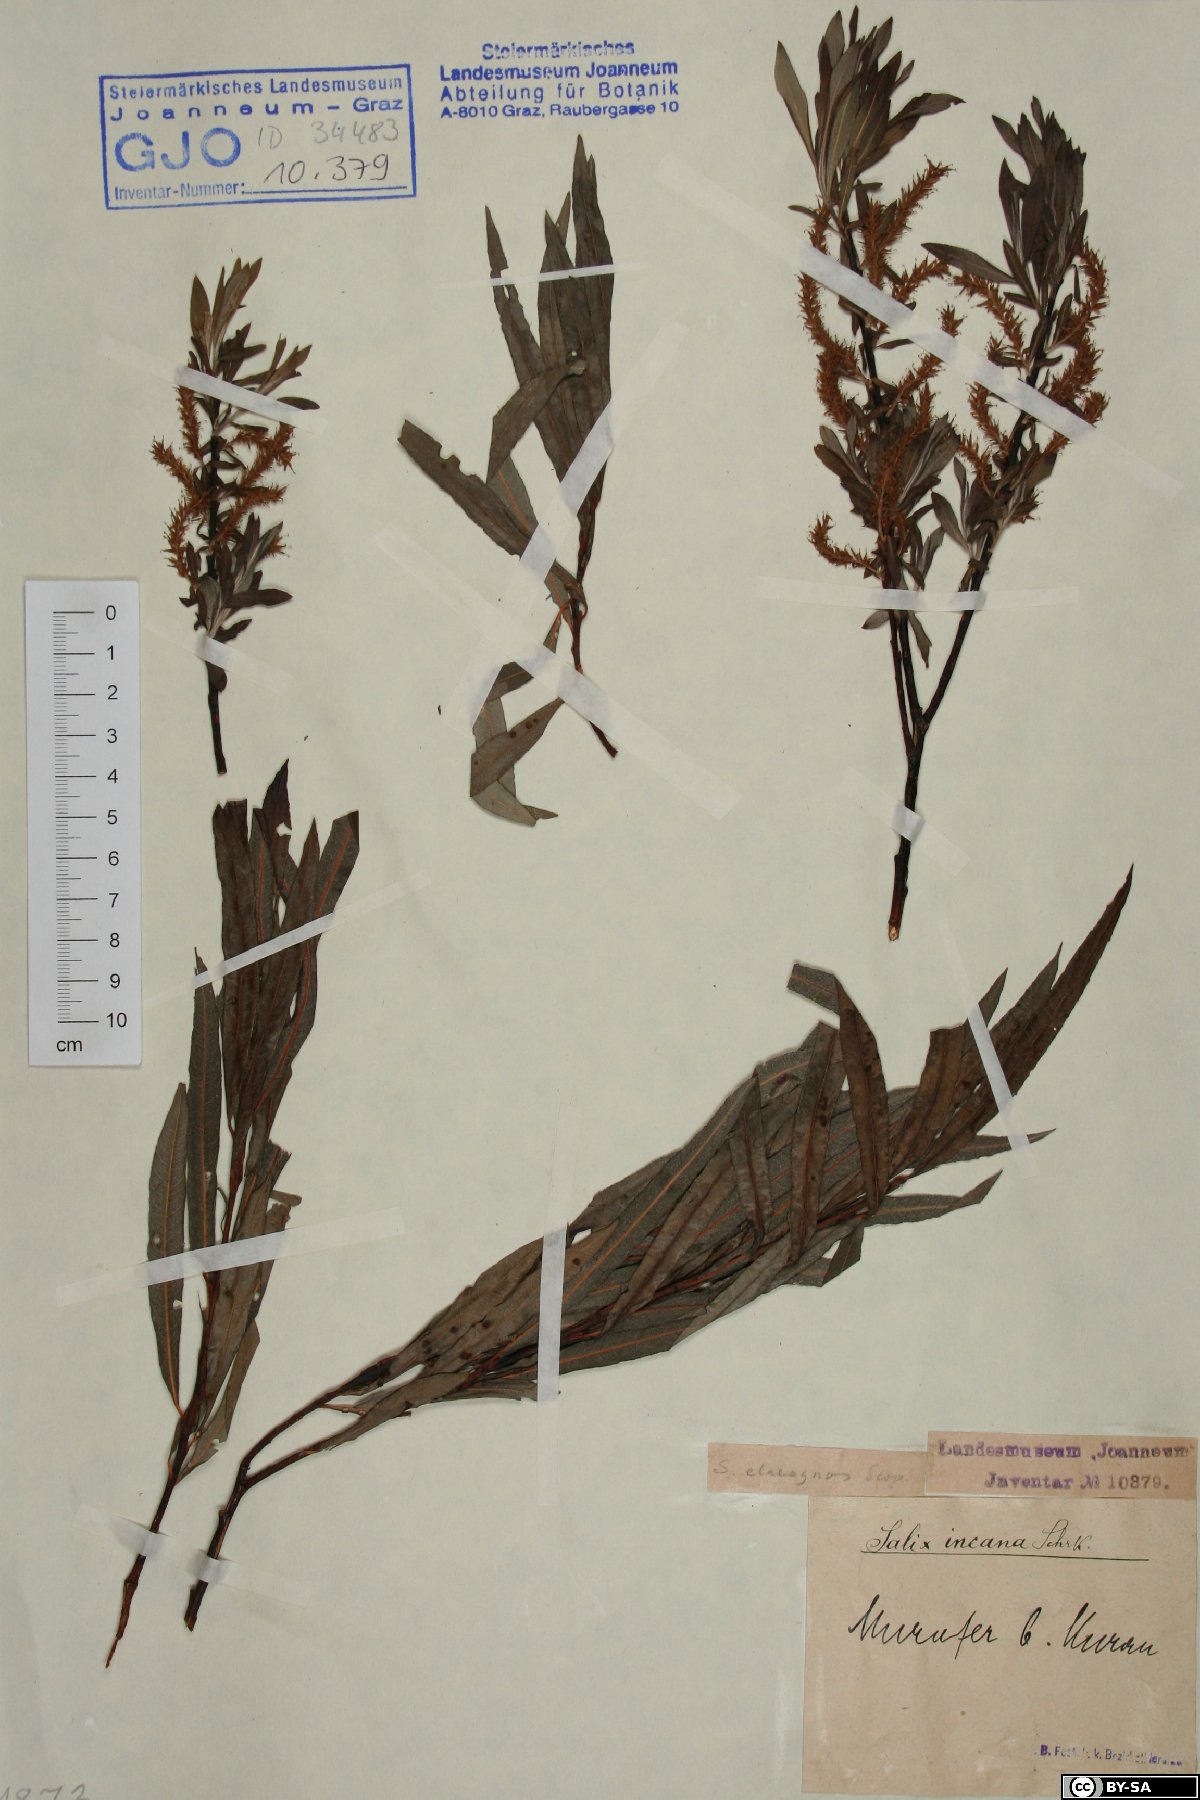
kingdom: Plantae
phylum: Tracheophyta
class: Magnoliopsida
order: Malpighiales
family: Salicaceae
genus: Salix
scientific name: Salix eleagnos
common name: Elaeagnus willow
